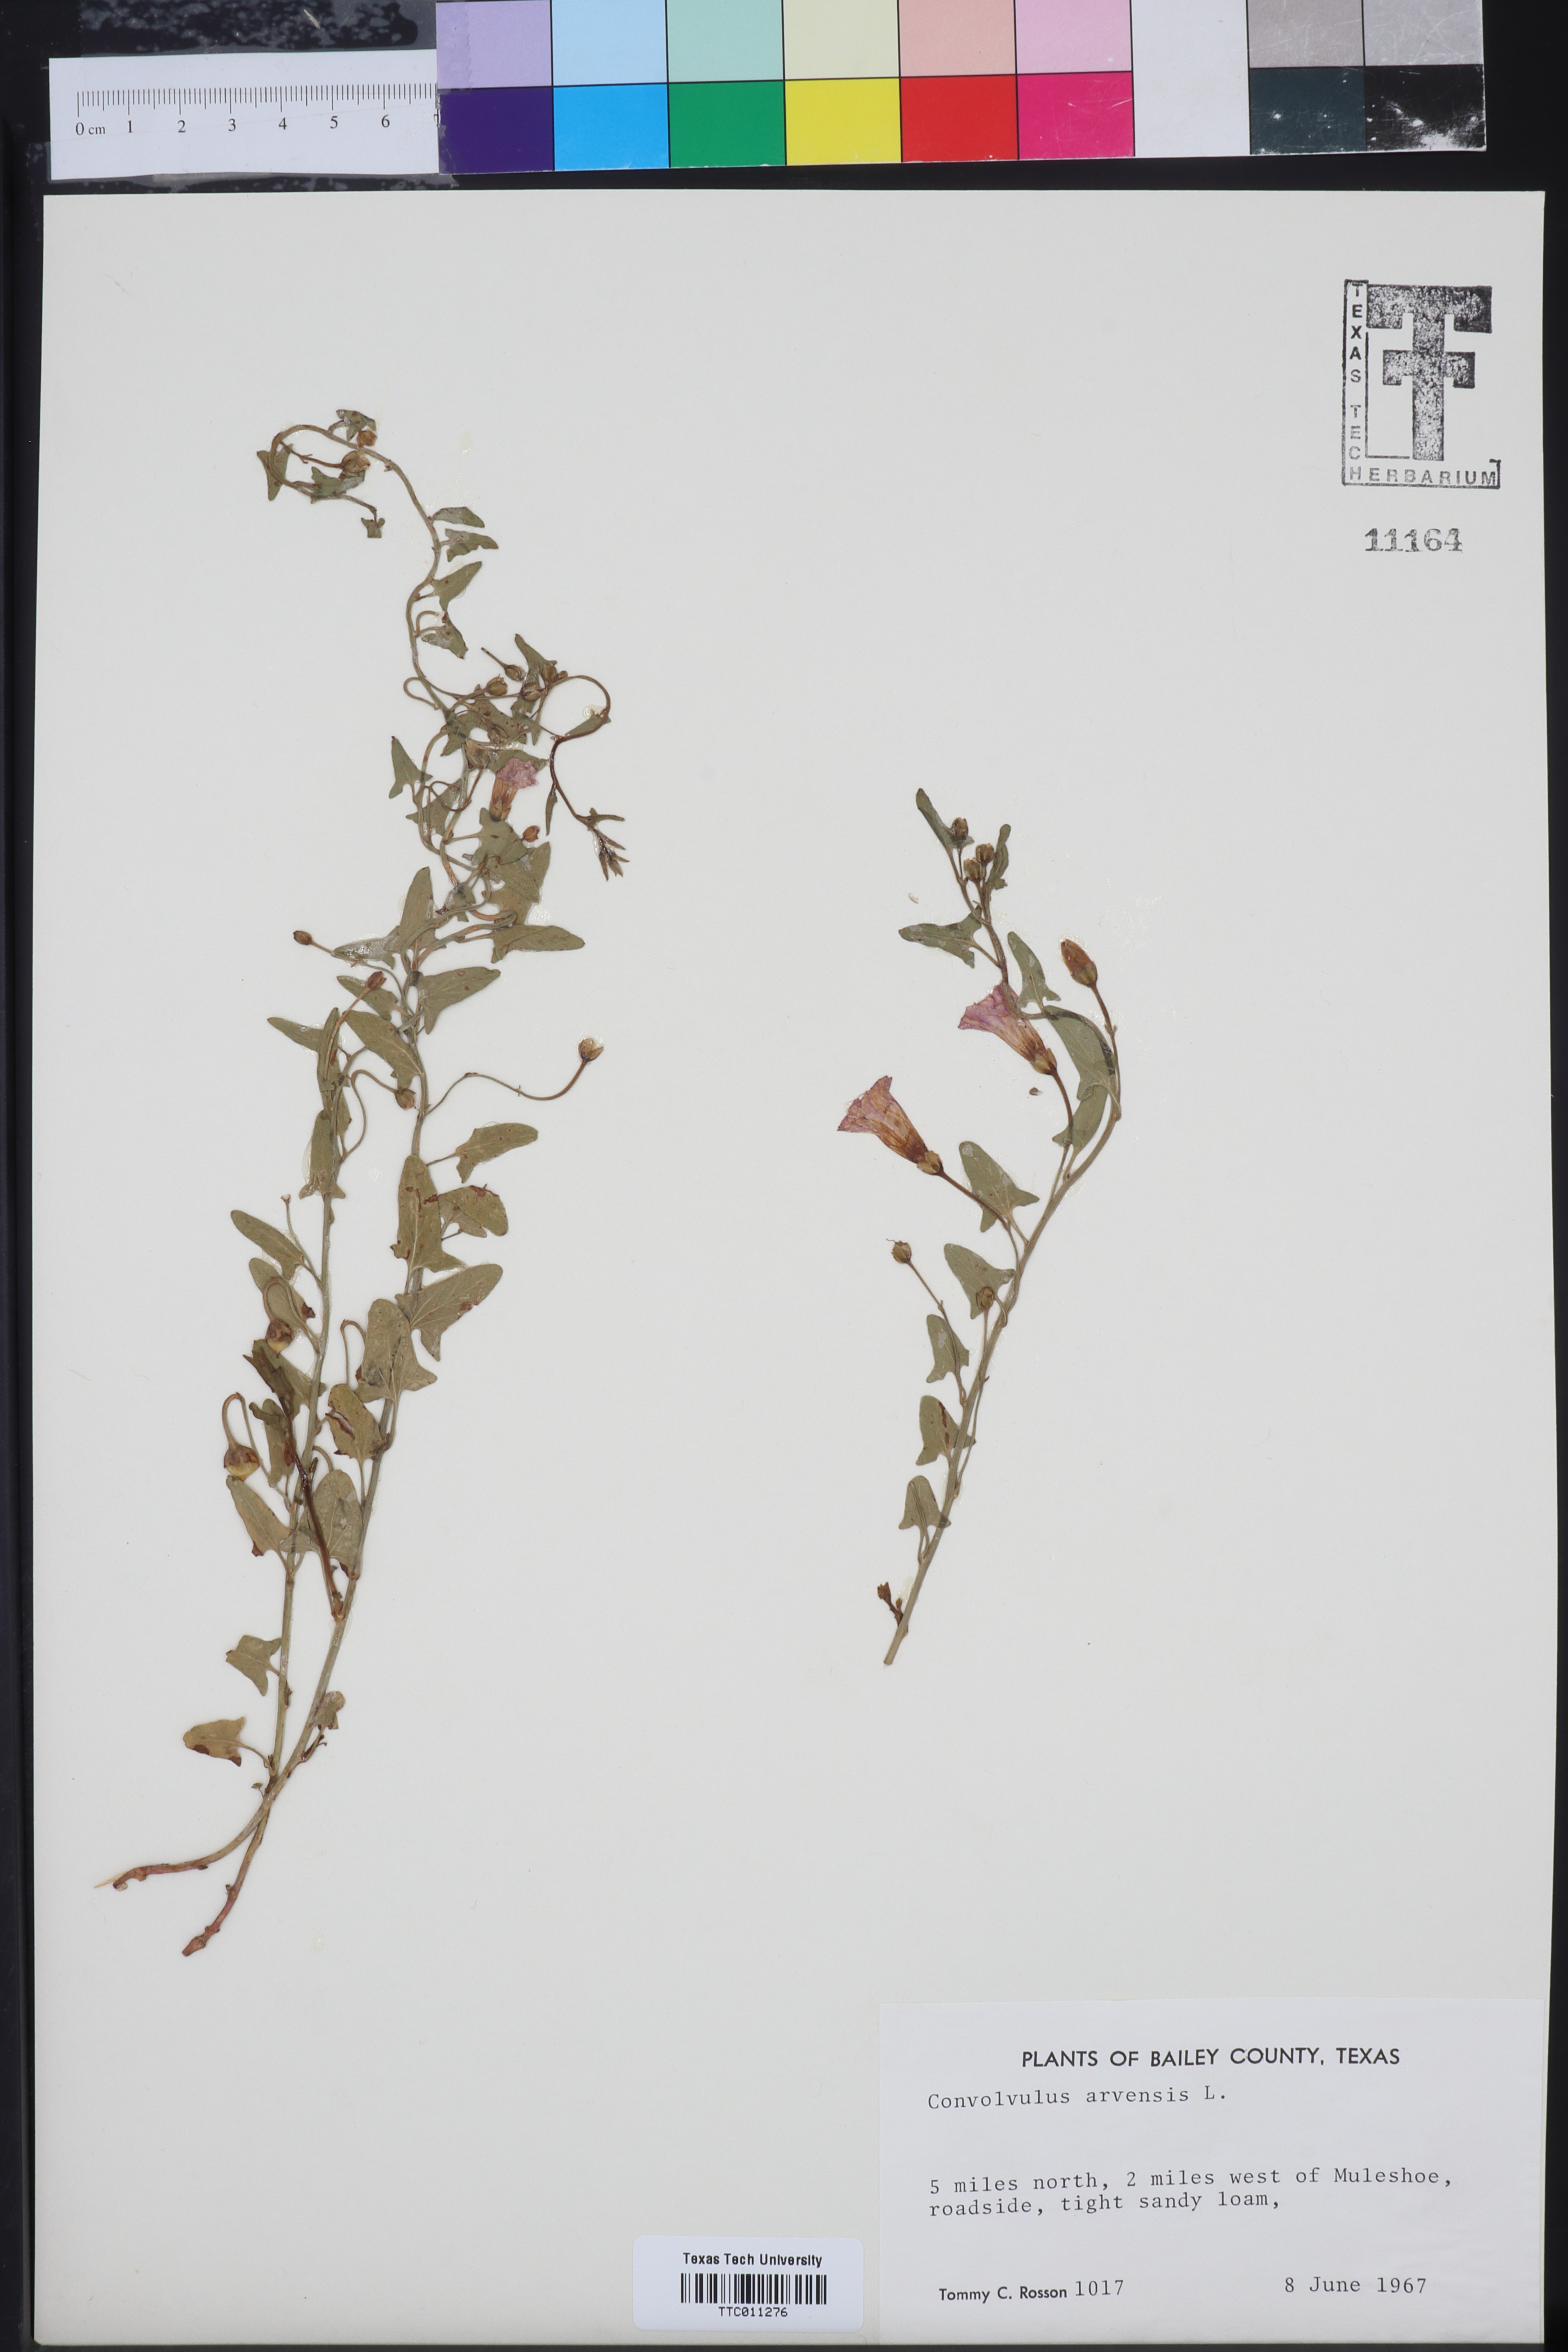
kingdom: Plantae
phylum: Tracheophyta
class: Magnoliopsida
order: Solanales
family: Convolvulaceae
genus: Convolvulus
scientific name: Convolvulus arvensis
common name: Field bindweed
